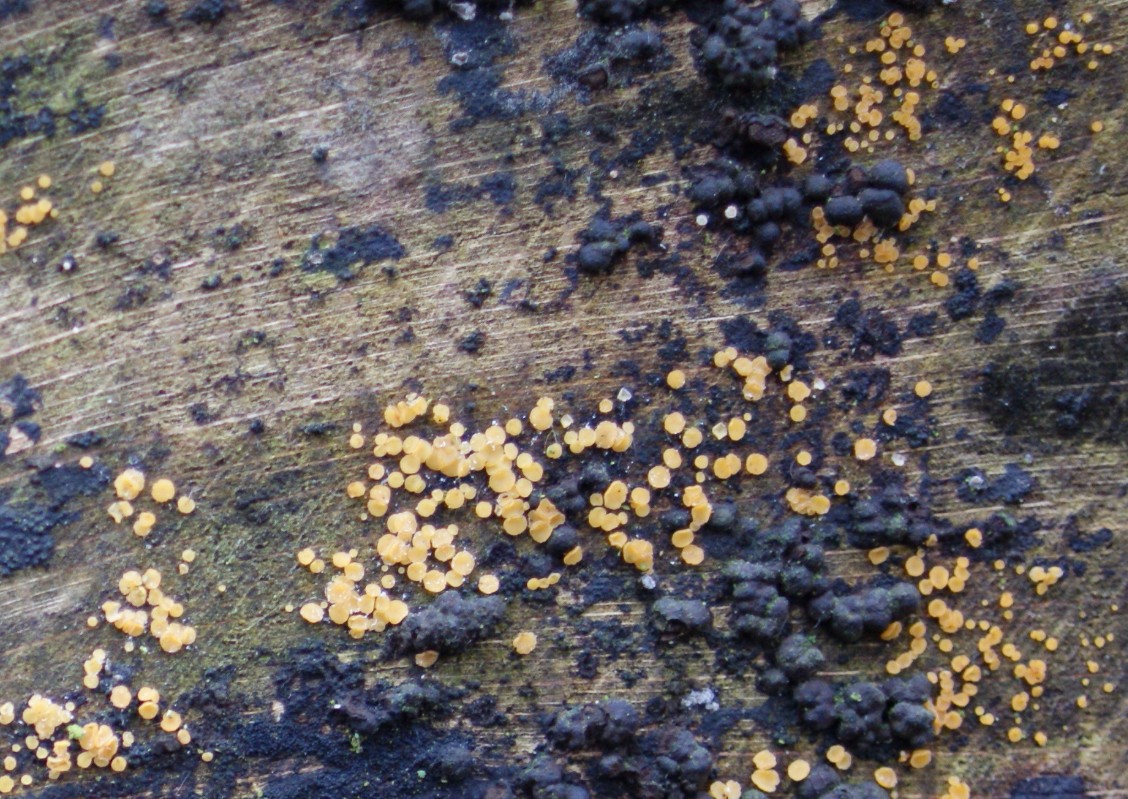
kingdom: Fungi
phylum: Ascomycota
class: Leotiomycetes
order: Helotiales
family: Helotiaceae
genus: Bispora
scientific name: Bispora pallescens
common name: måtte-snitskive
